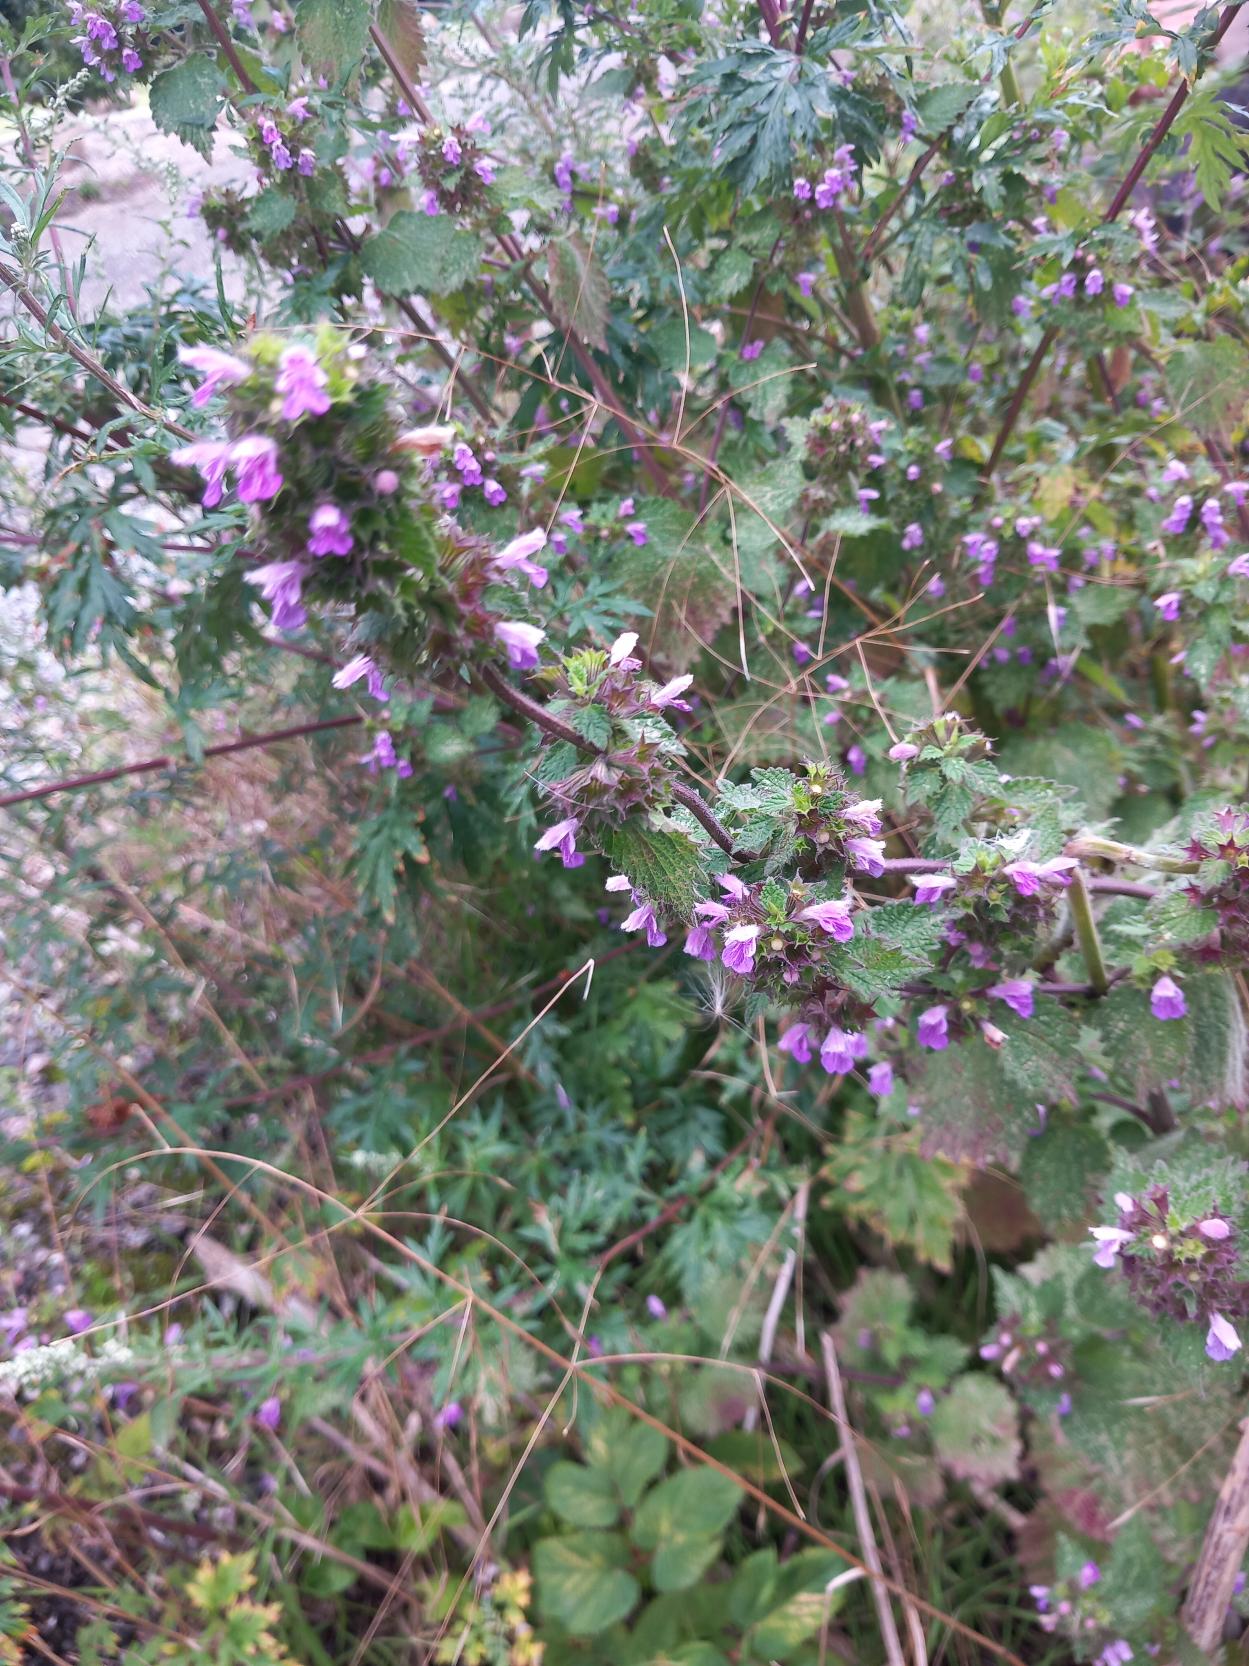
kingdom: Plantae
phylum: Tracheophyta
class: Magnoliopsida
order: Lamiales
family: Lamiaceae
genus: Ballota
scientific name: Ballota nigra
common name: Tandbæger
